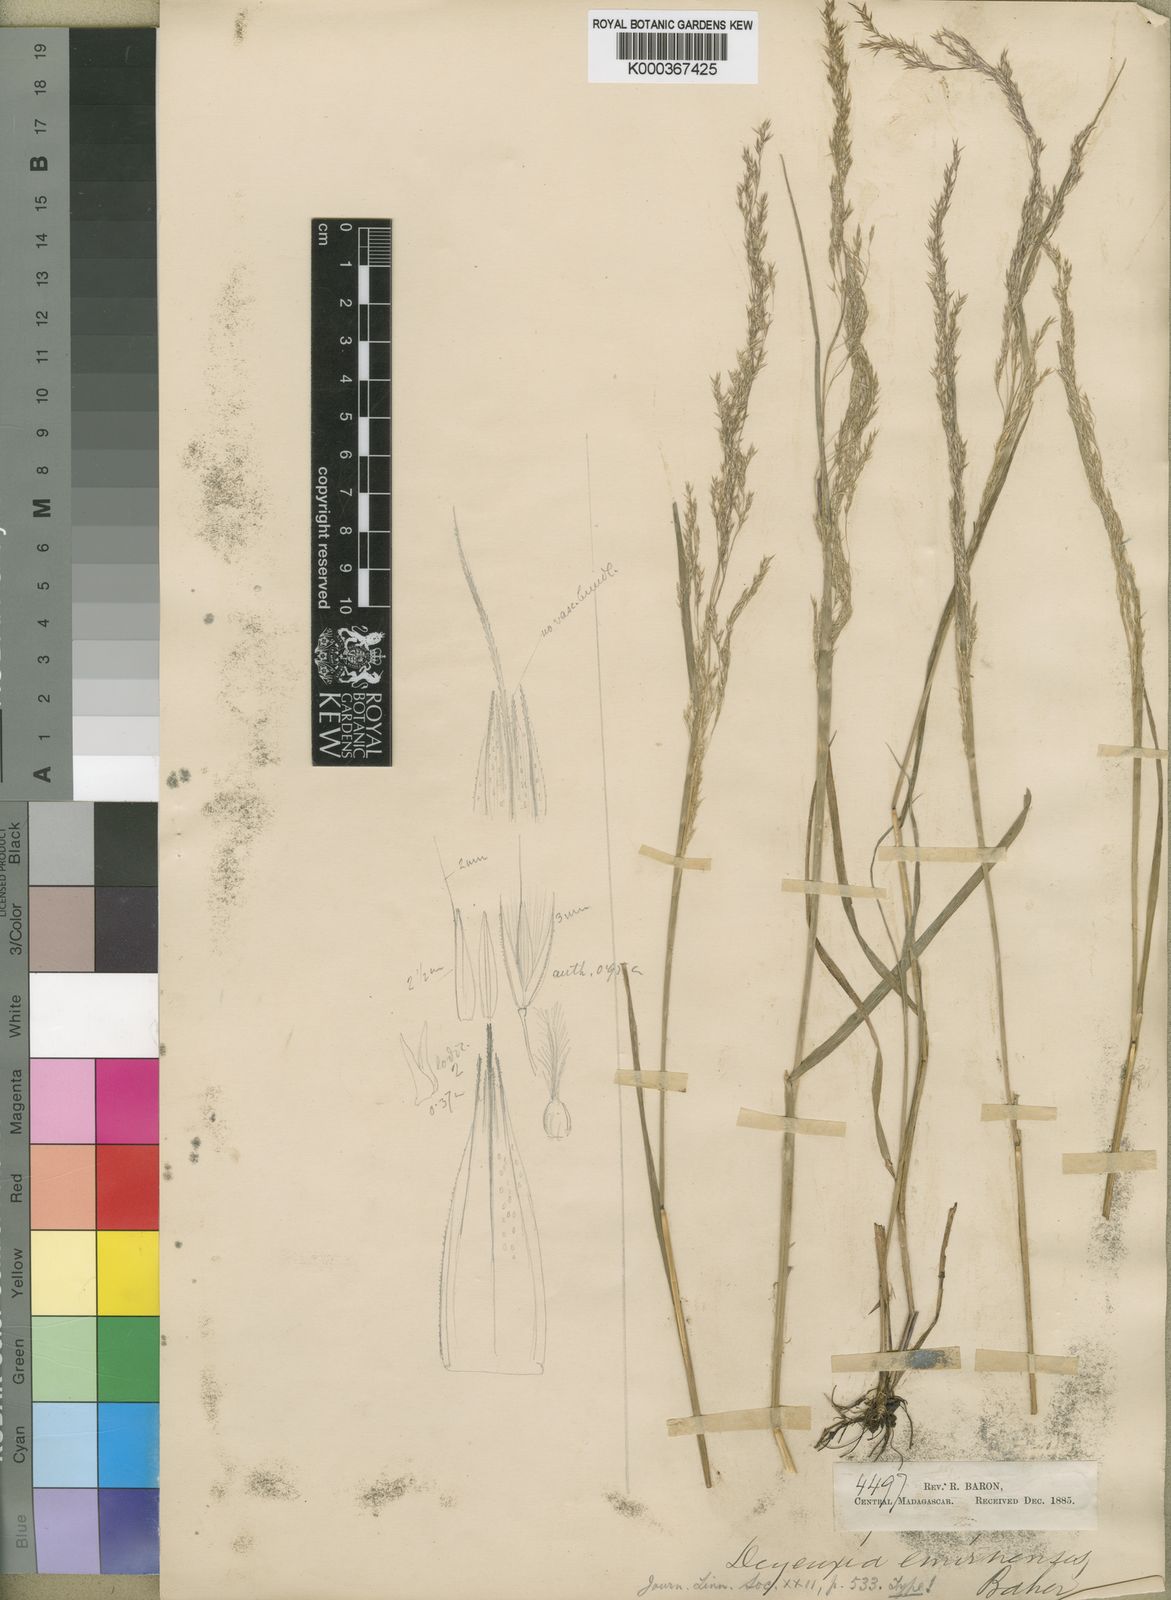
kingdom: Plantae
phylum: Tracheophyta
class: Liliopsida
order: Poales
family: Poaceae
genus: Agrostis
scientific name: Agrostis emirnensis
